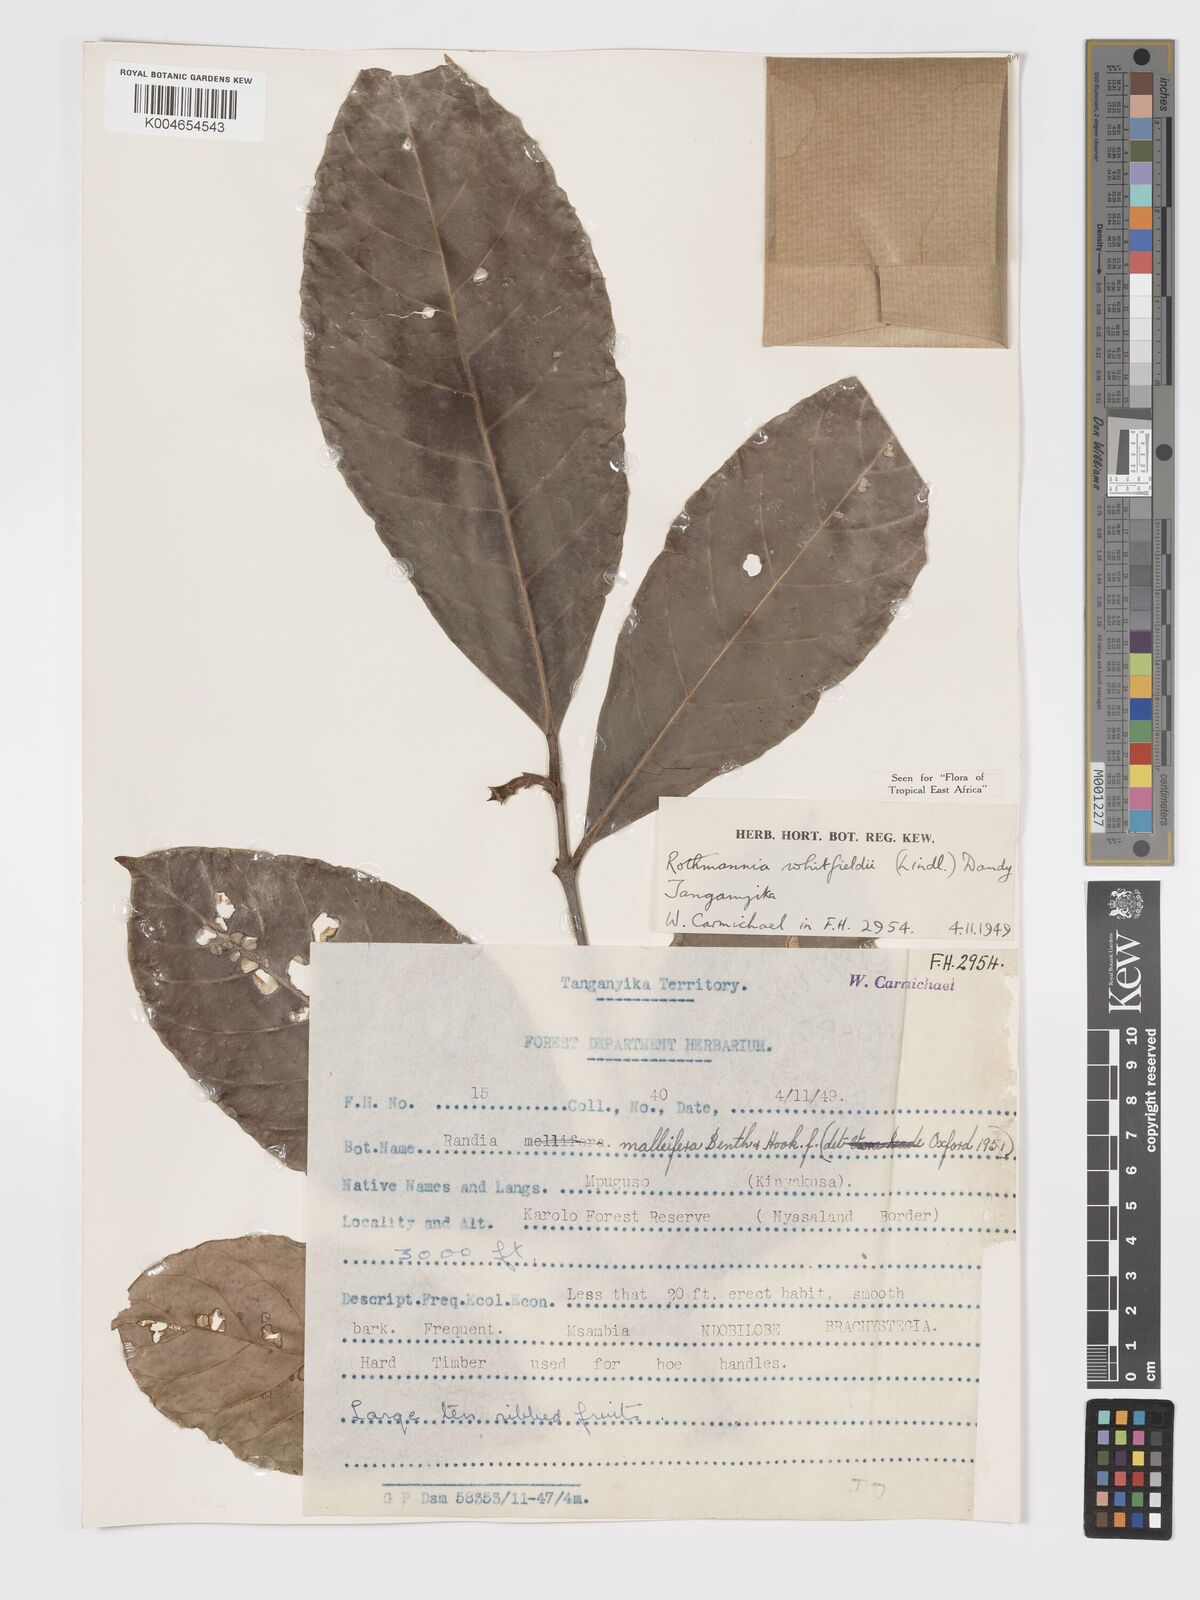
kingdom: Plantae
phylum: Tracheophyta
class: Magnoliopsida
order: Gentianales
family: Rubiaceae
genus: Rothmannia
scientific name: Rothmannia whitfieldii
